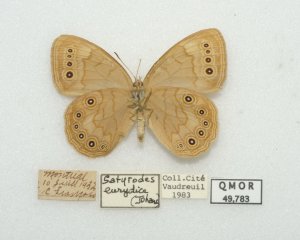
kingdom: Animalia
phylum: Arthropoda
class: Insecta
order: Lepidoptera
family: Nymphalidae
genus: Lethe
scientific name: Lethe eurydice
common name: Eyed Brown
